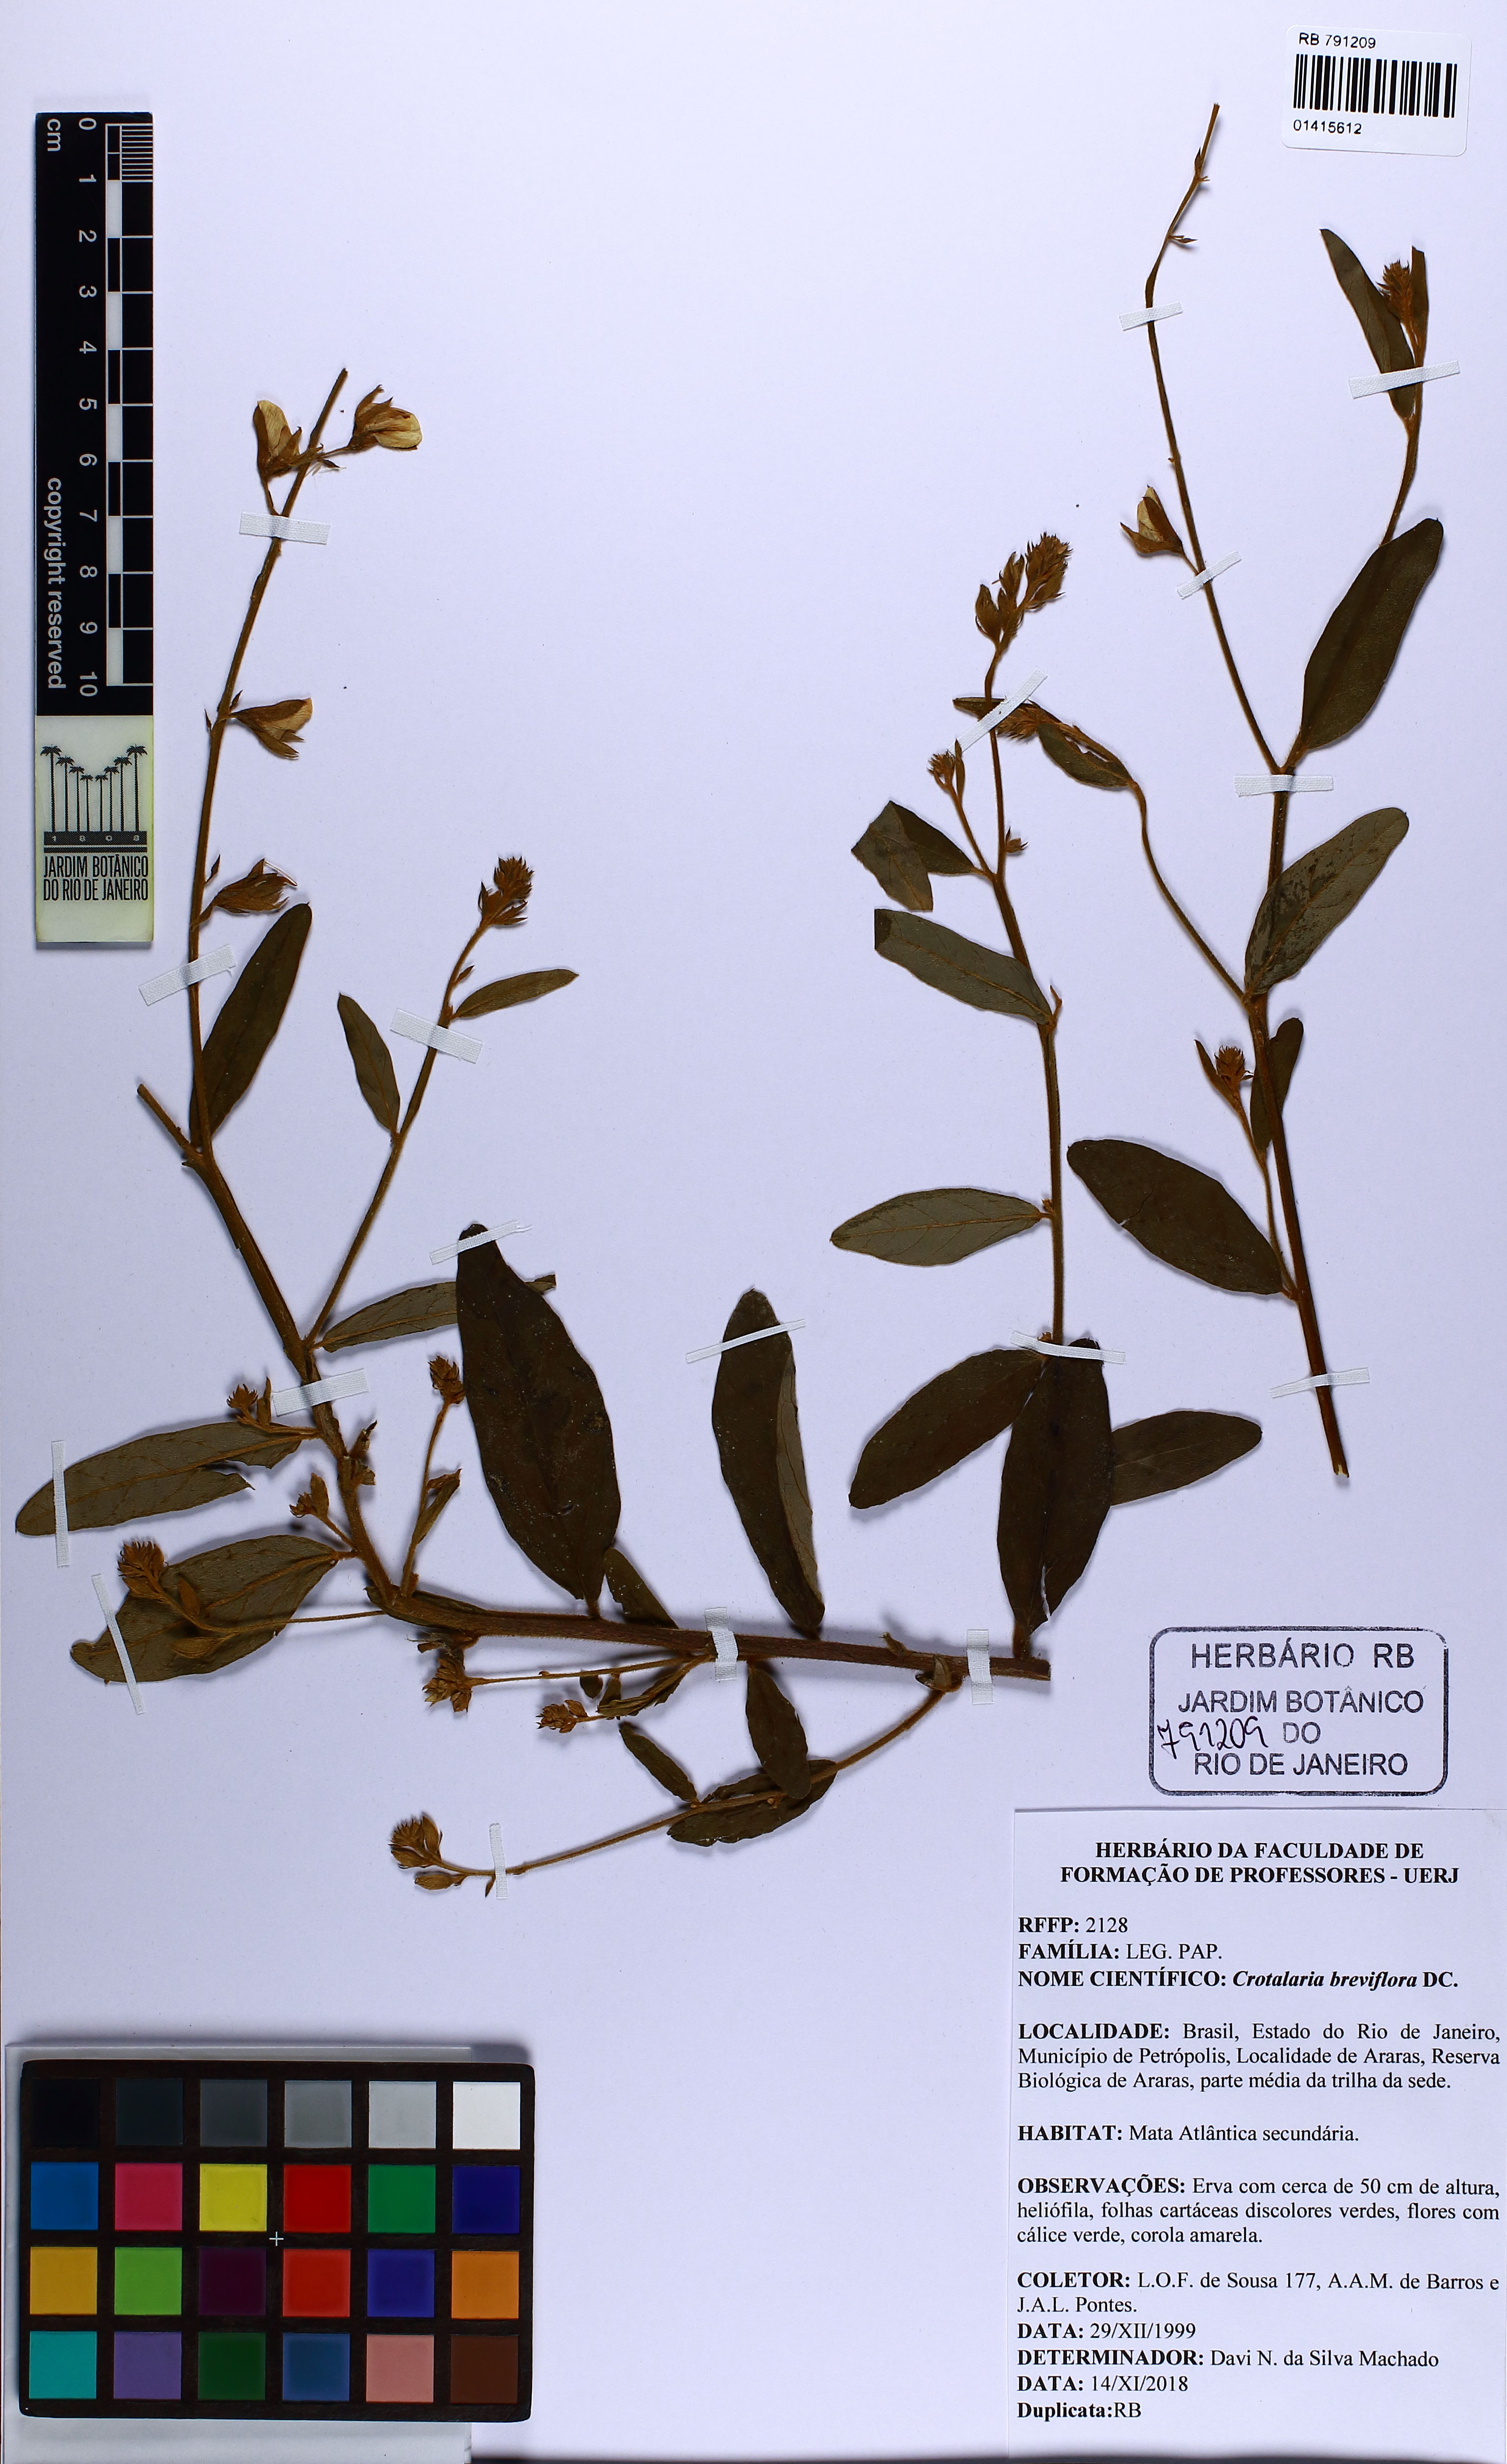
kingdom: Plantae
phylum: Tracheophyta
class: Magnoliopsida
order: Fabales
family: Fabaceae
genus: Crotalaria
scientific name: Crotalaria breviflora
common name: Short-flower crotalaria
